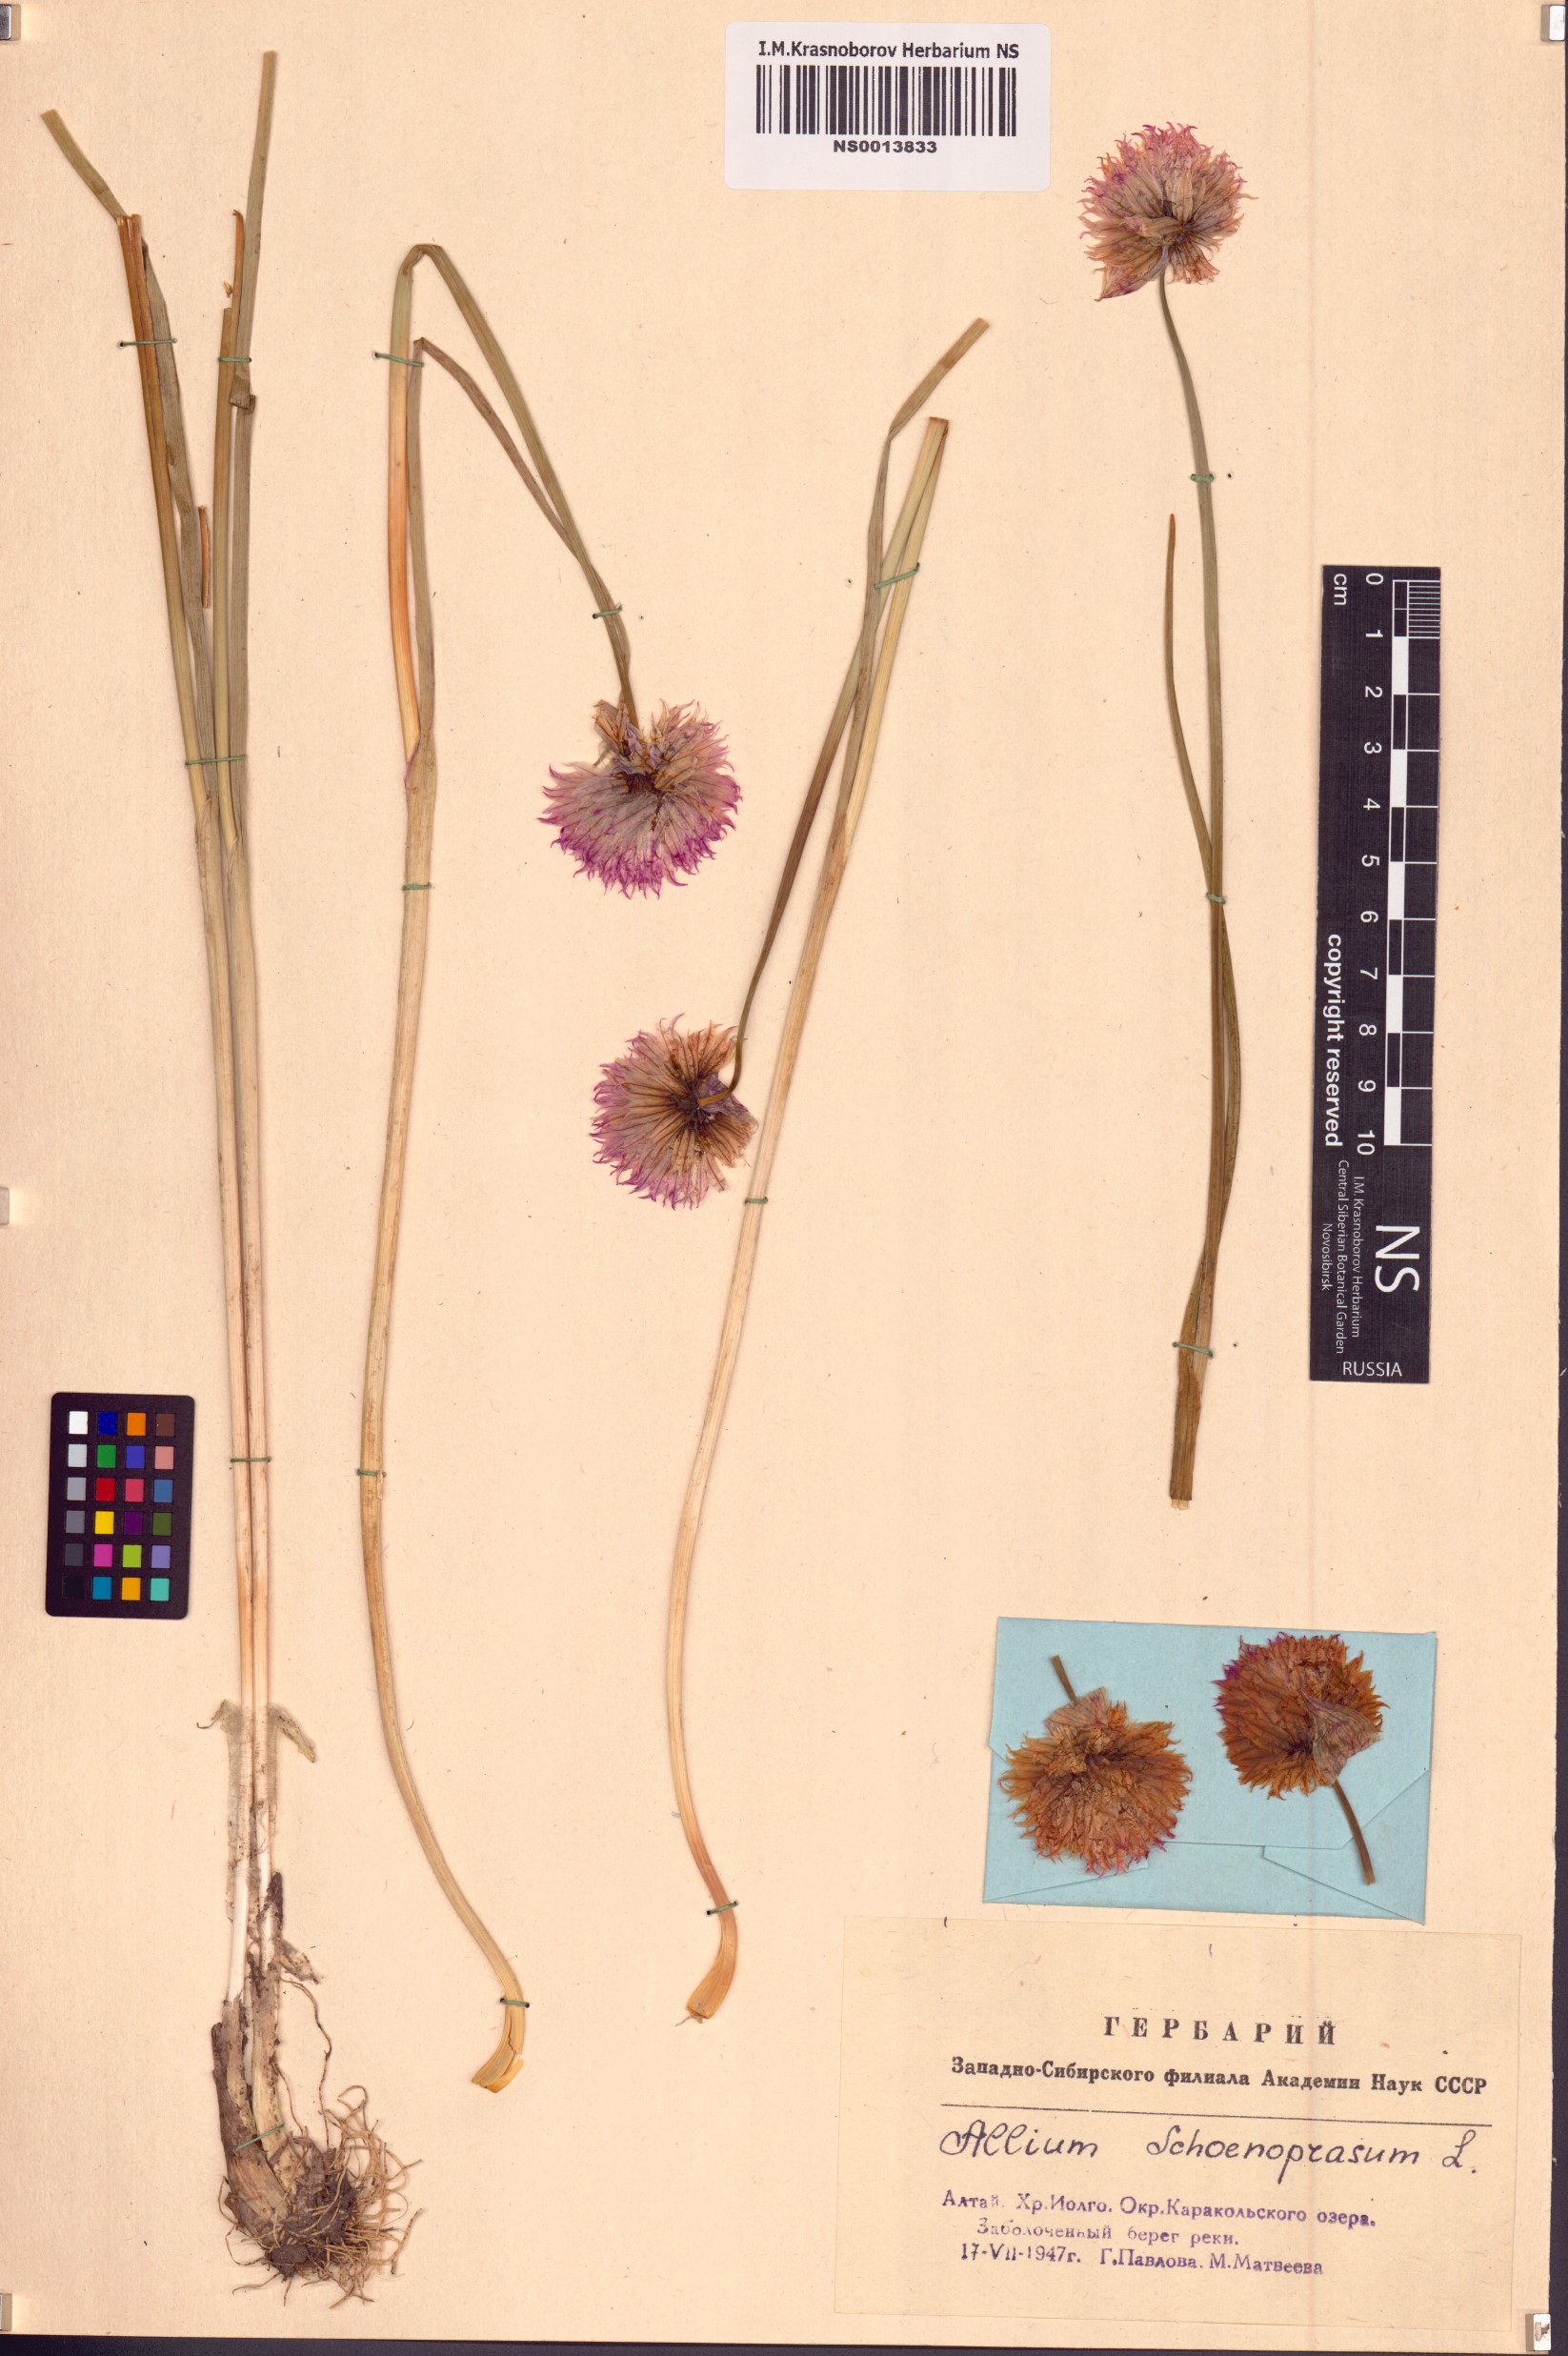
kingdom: Plantae
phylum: Tracheophyta
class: Liliopsida
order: Asparagales
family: Amaryllidaceae
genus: Allium
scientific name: Allium schoenoprasum
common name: Chives
